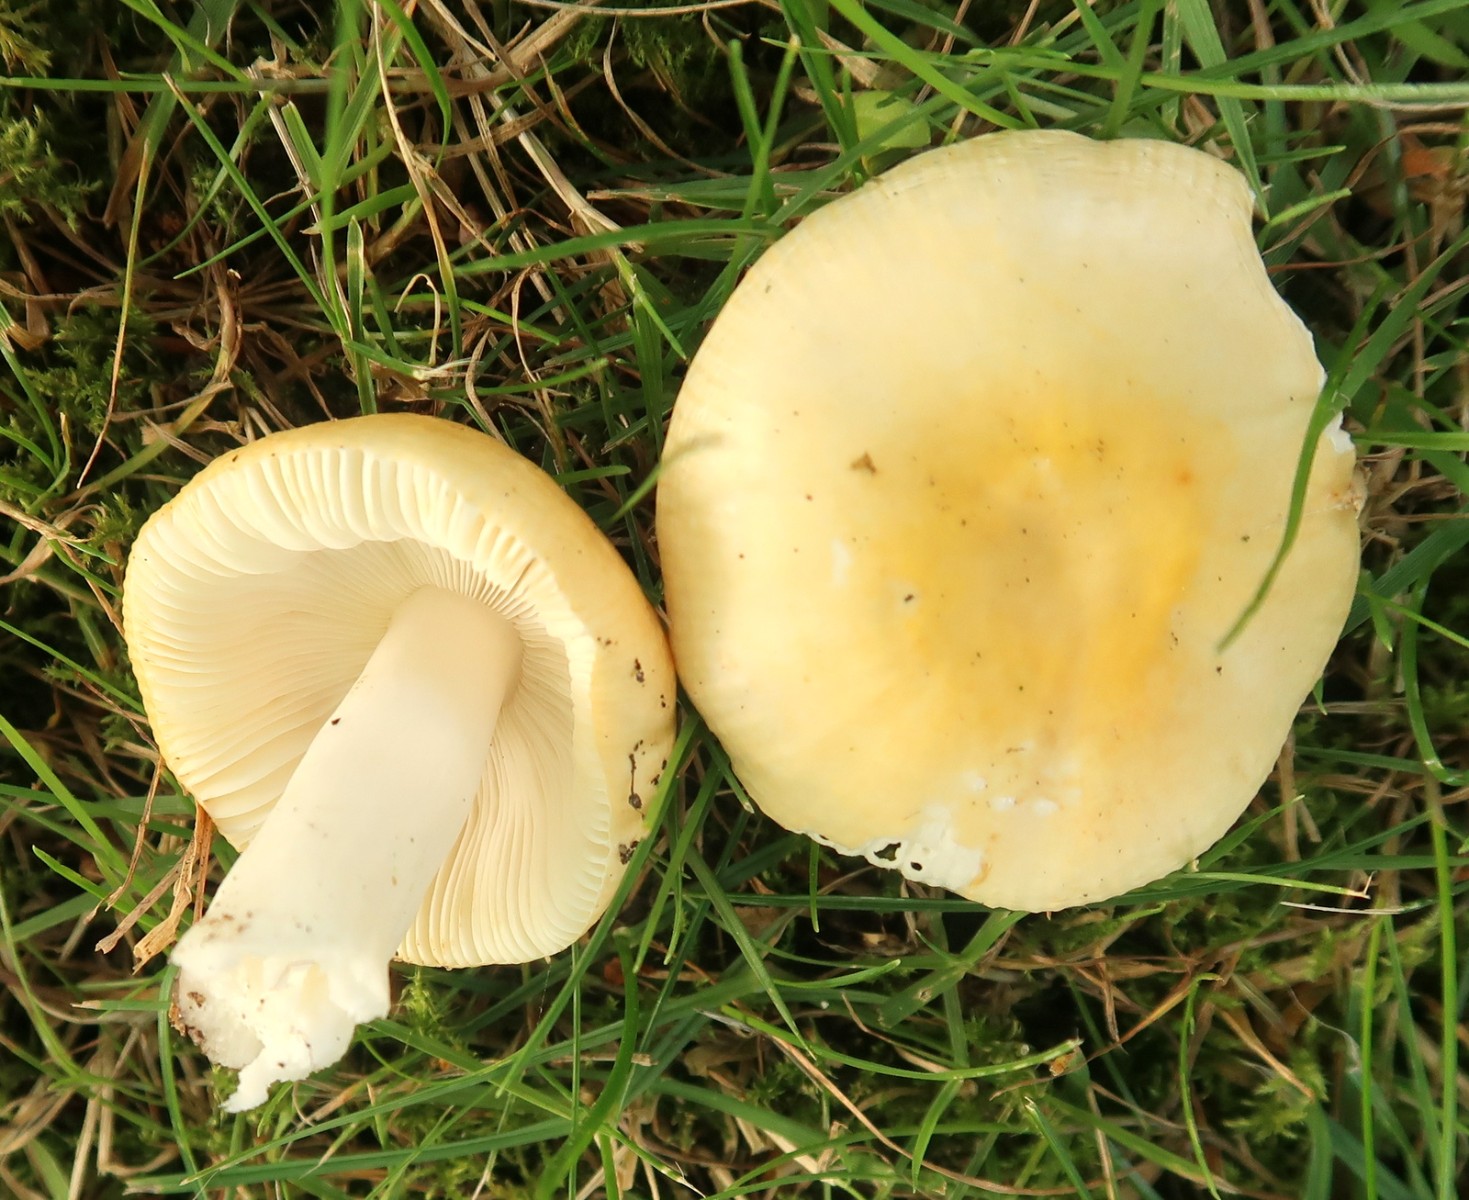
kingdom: Fungi
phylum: Basidiomycota
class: Agaricomycetes
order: Russulales
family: Russulaceae
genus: Russula
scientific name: Russula fellea
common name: galde-skørhat
